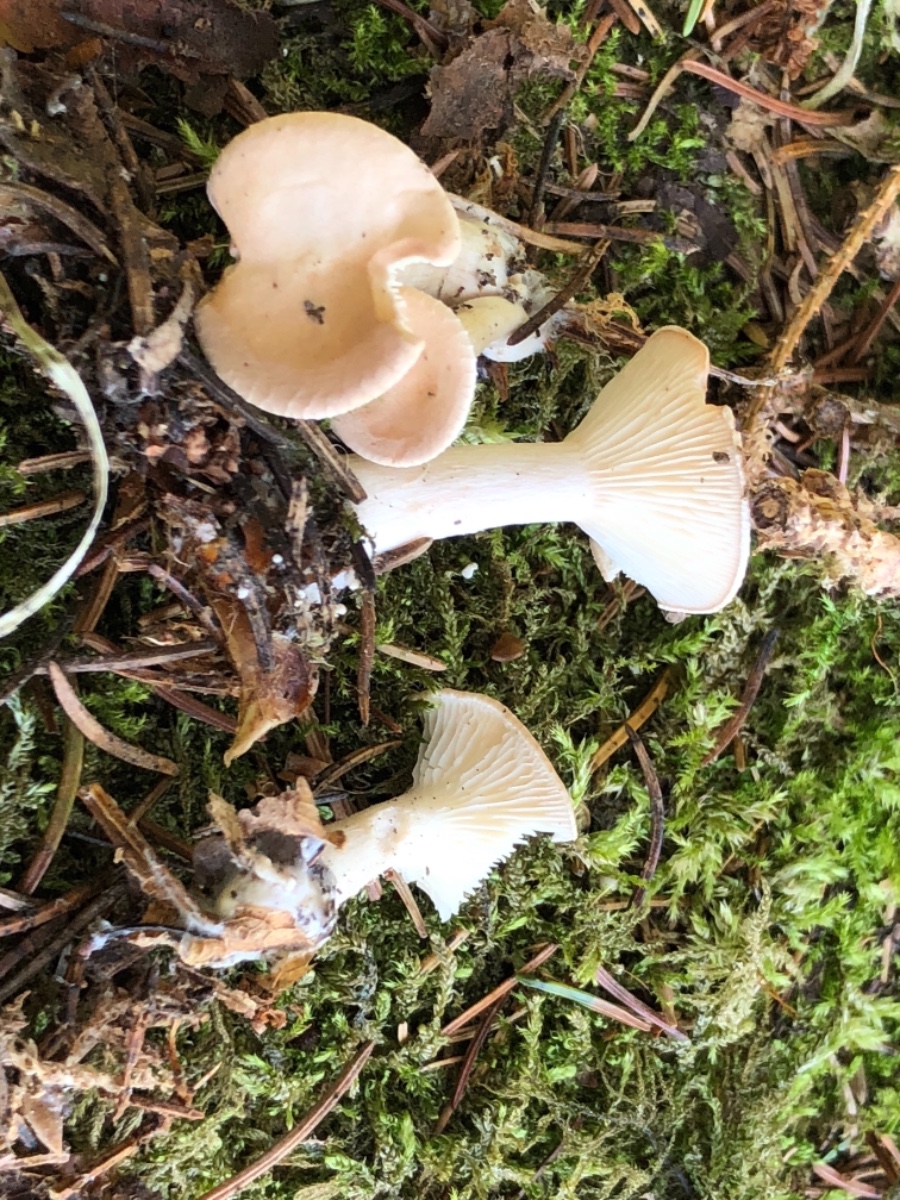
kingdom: Fungi
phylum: Basidiomycota
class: Agaricomycetes
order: Agaricales
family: Tricholomataceae
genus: Infundibulicybe
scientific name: Infundibulicybe gibba
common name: almindelig tragthat
